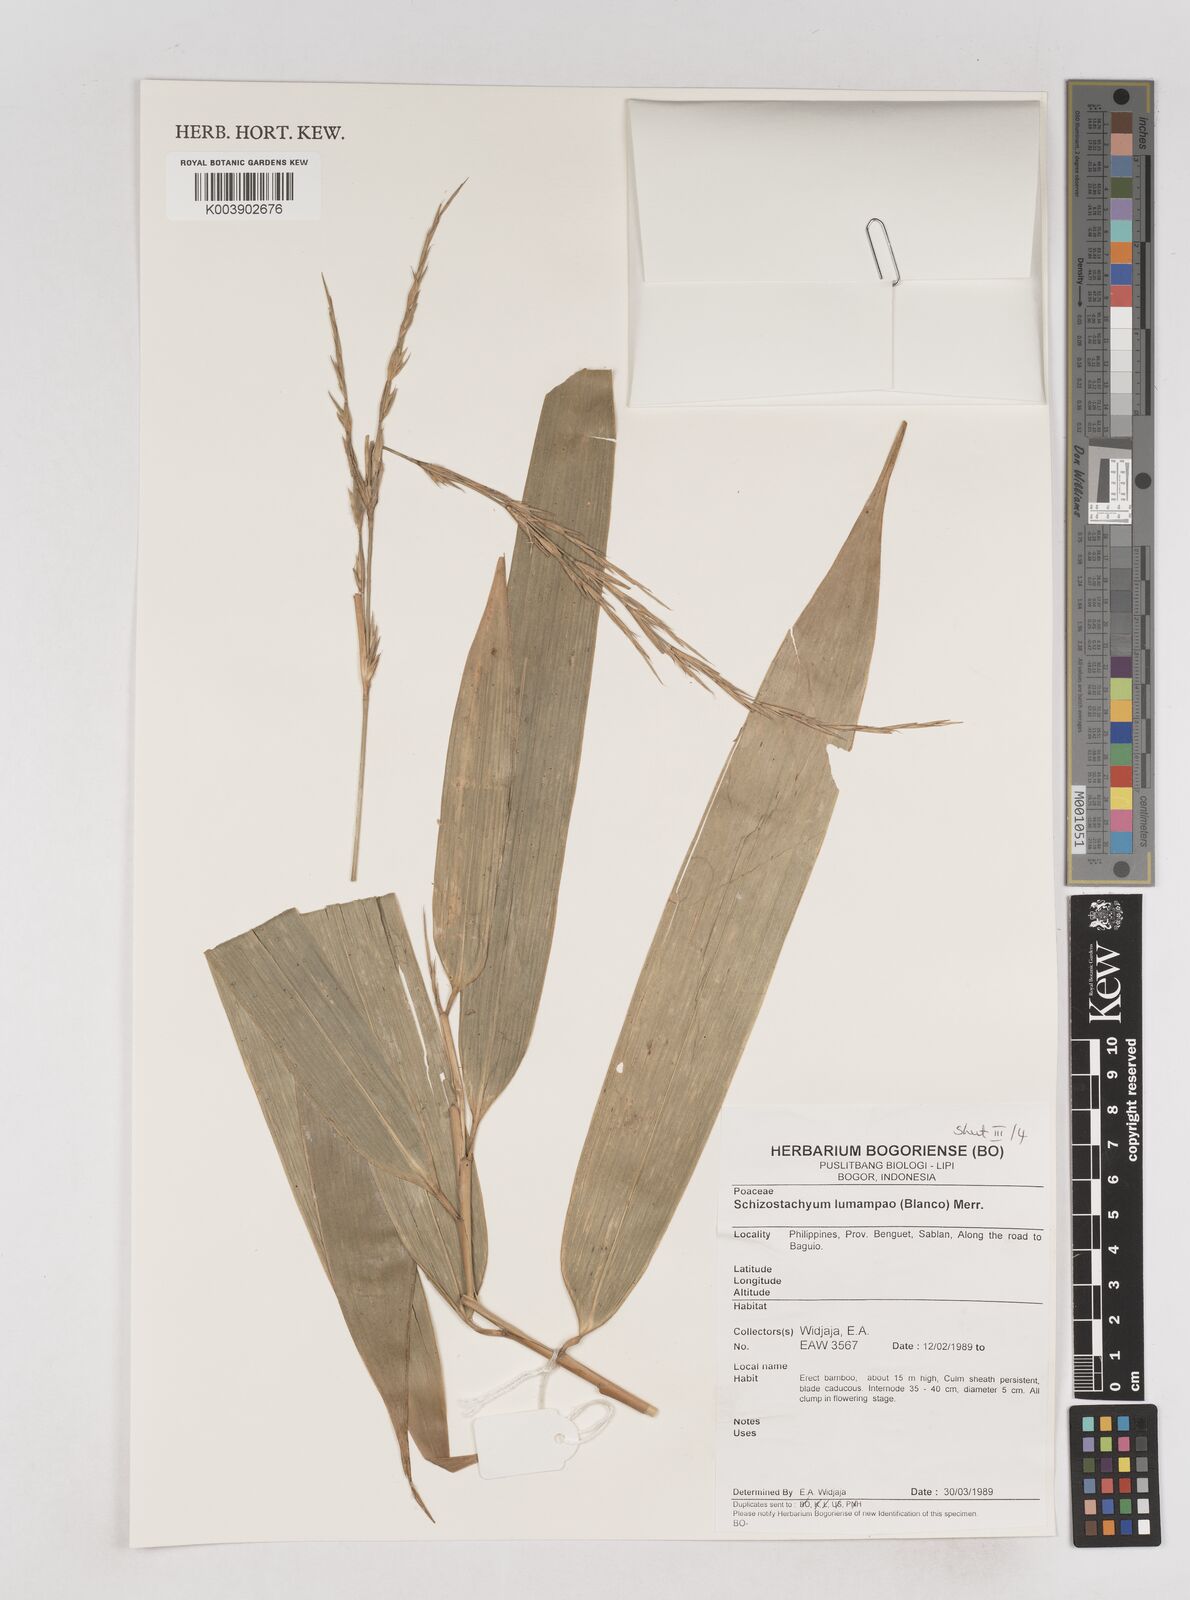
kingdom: Plantae
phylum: Tracheophyta
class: Liliopsida
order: Poales
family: Poaceae
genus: Schizostachyum
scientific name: Schizostachyum lumampao
